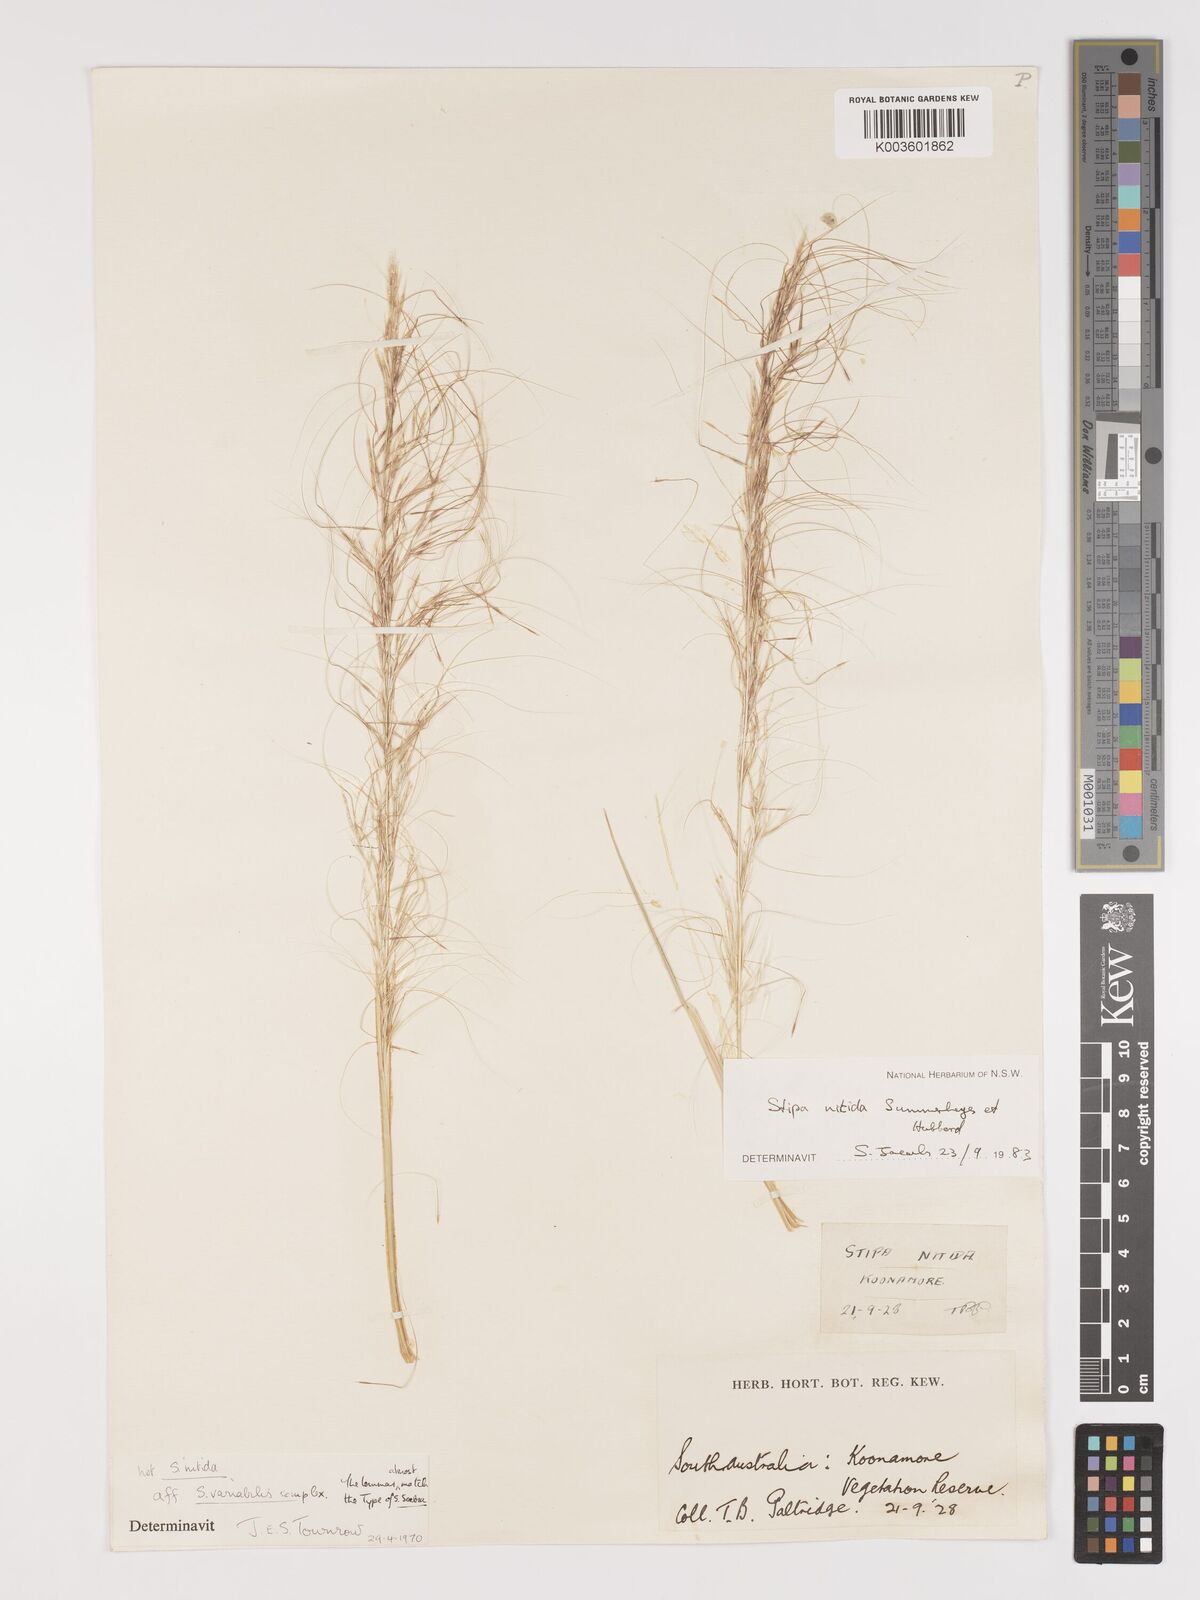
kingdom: Plantae
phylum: Tracheophyta
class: Liliopsida
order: Poales
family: Poaceae
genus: Austrostipa
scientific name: Austrostipa nitida
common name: Balcarra grass
